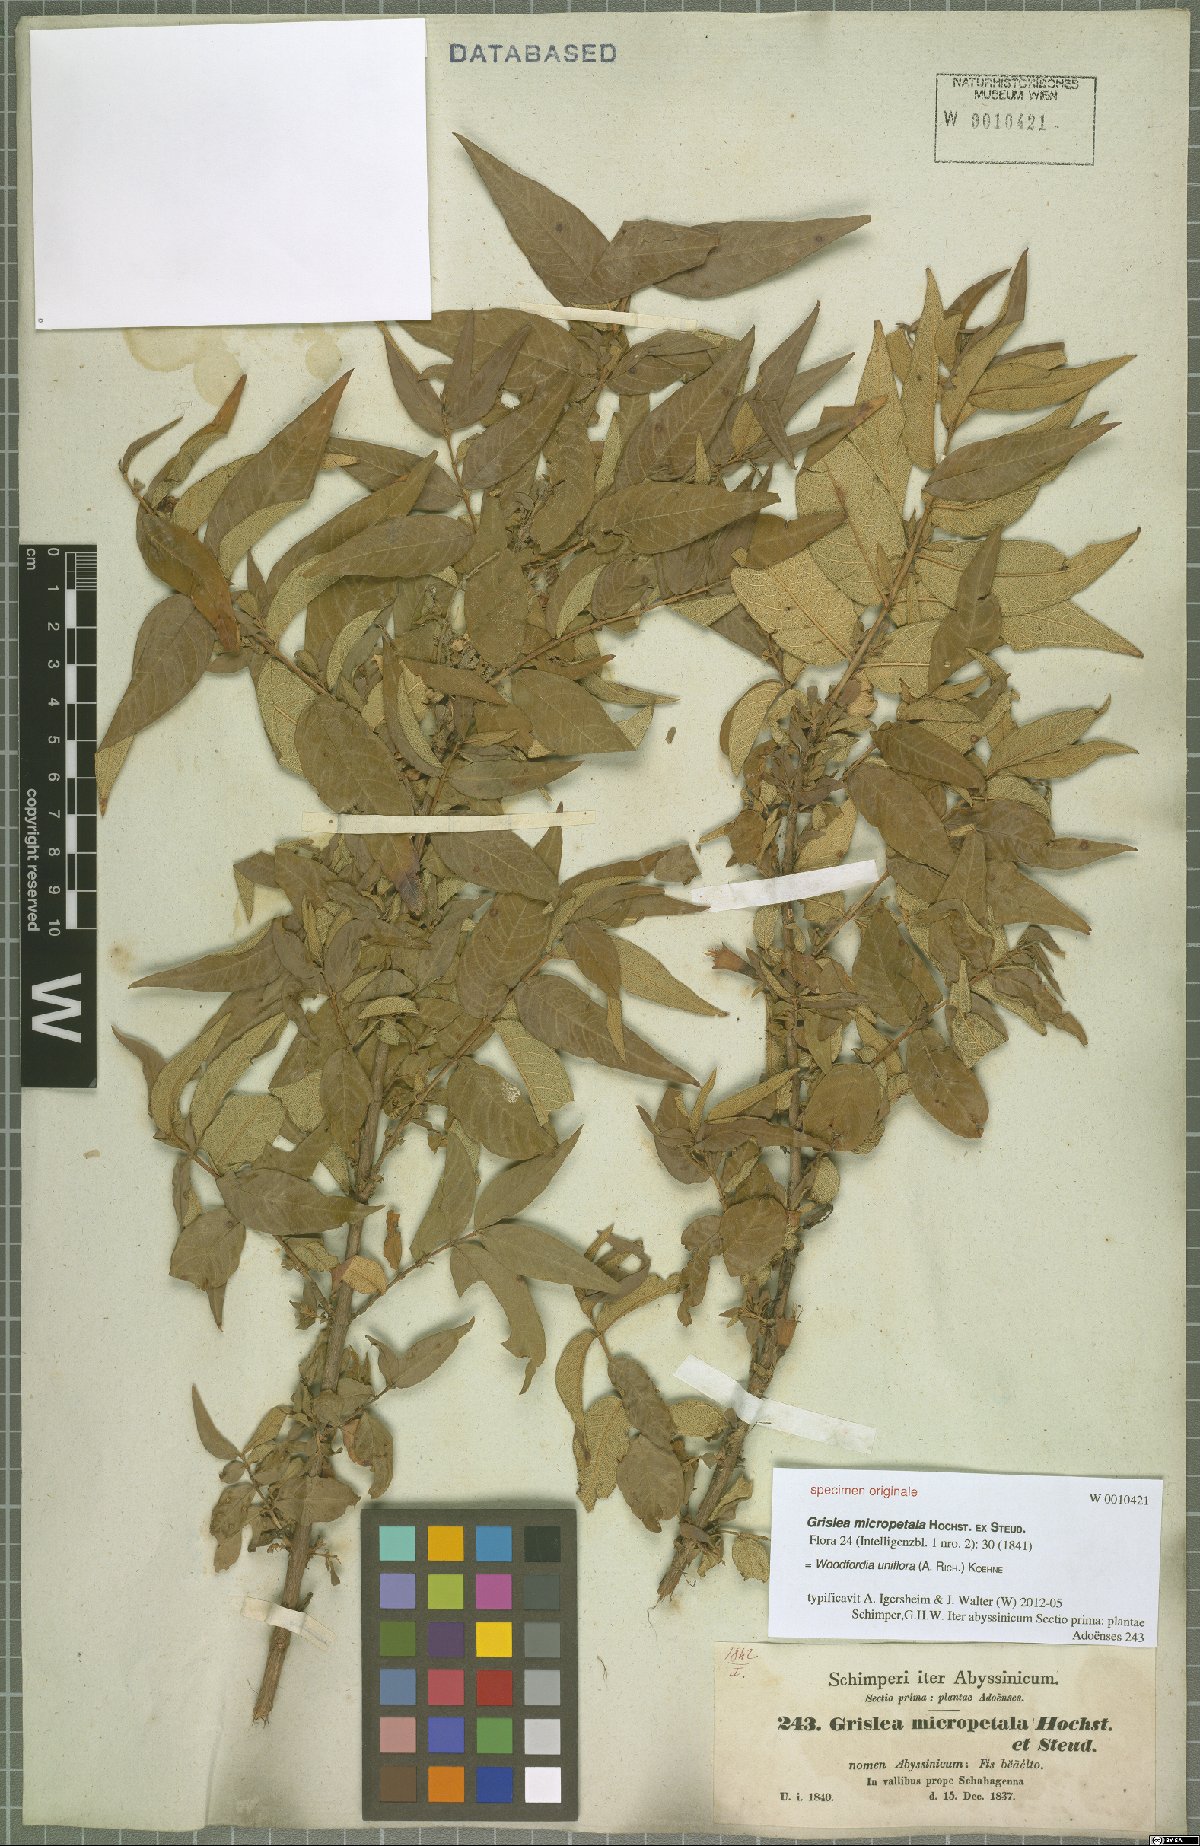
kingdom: Plantae
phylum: Tracheophyta
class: Magnoliopsida
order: Myrtales
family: Lythraceae
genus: Woodfordia
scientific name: Woodfordia uniflora
